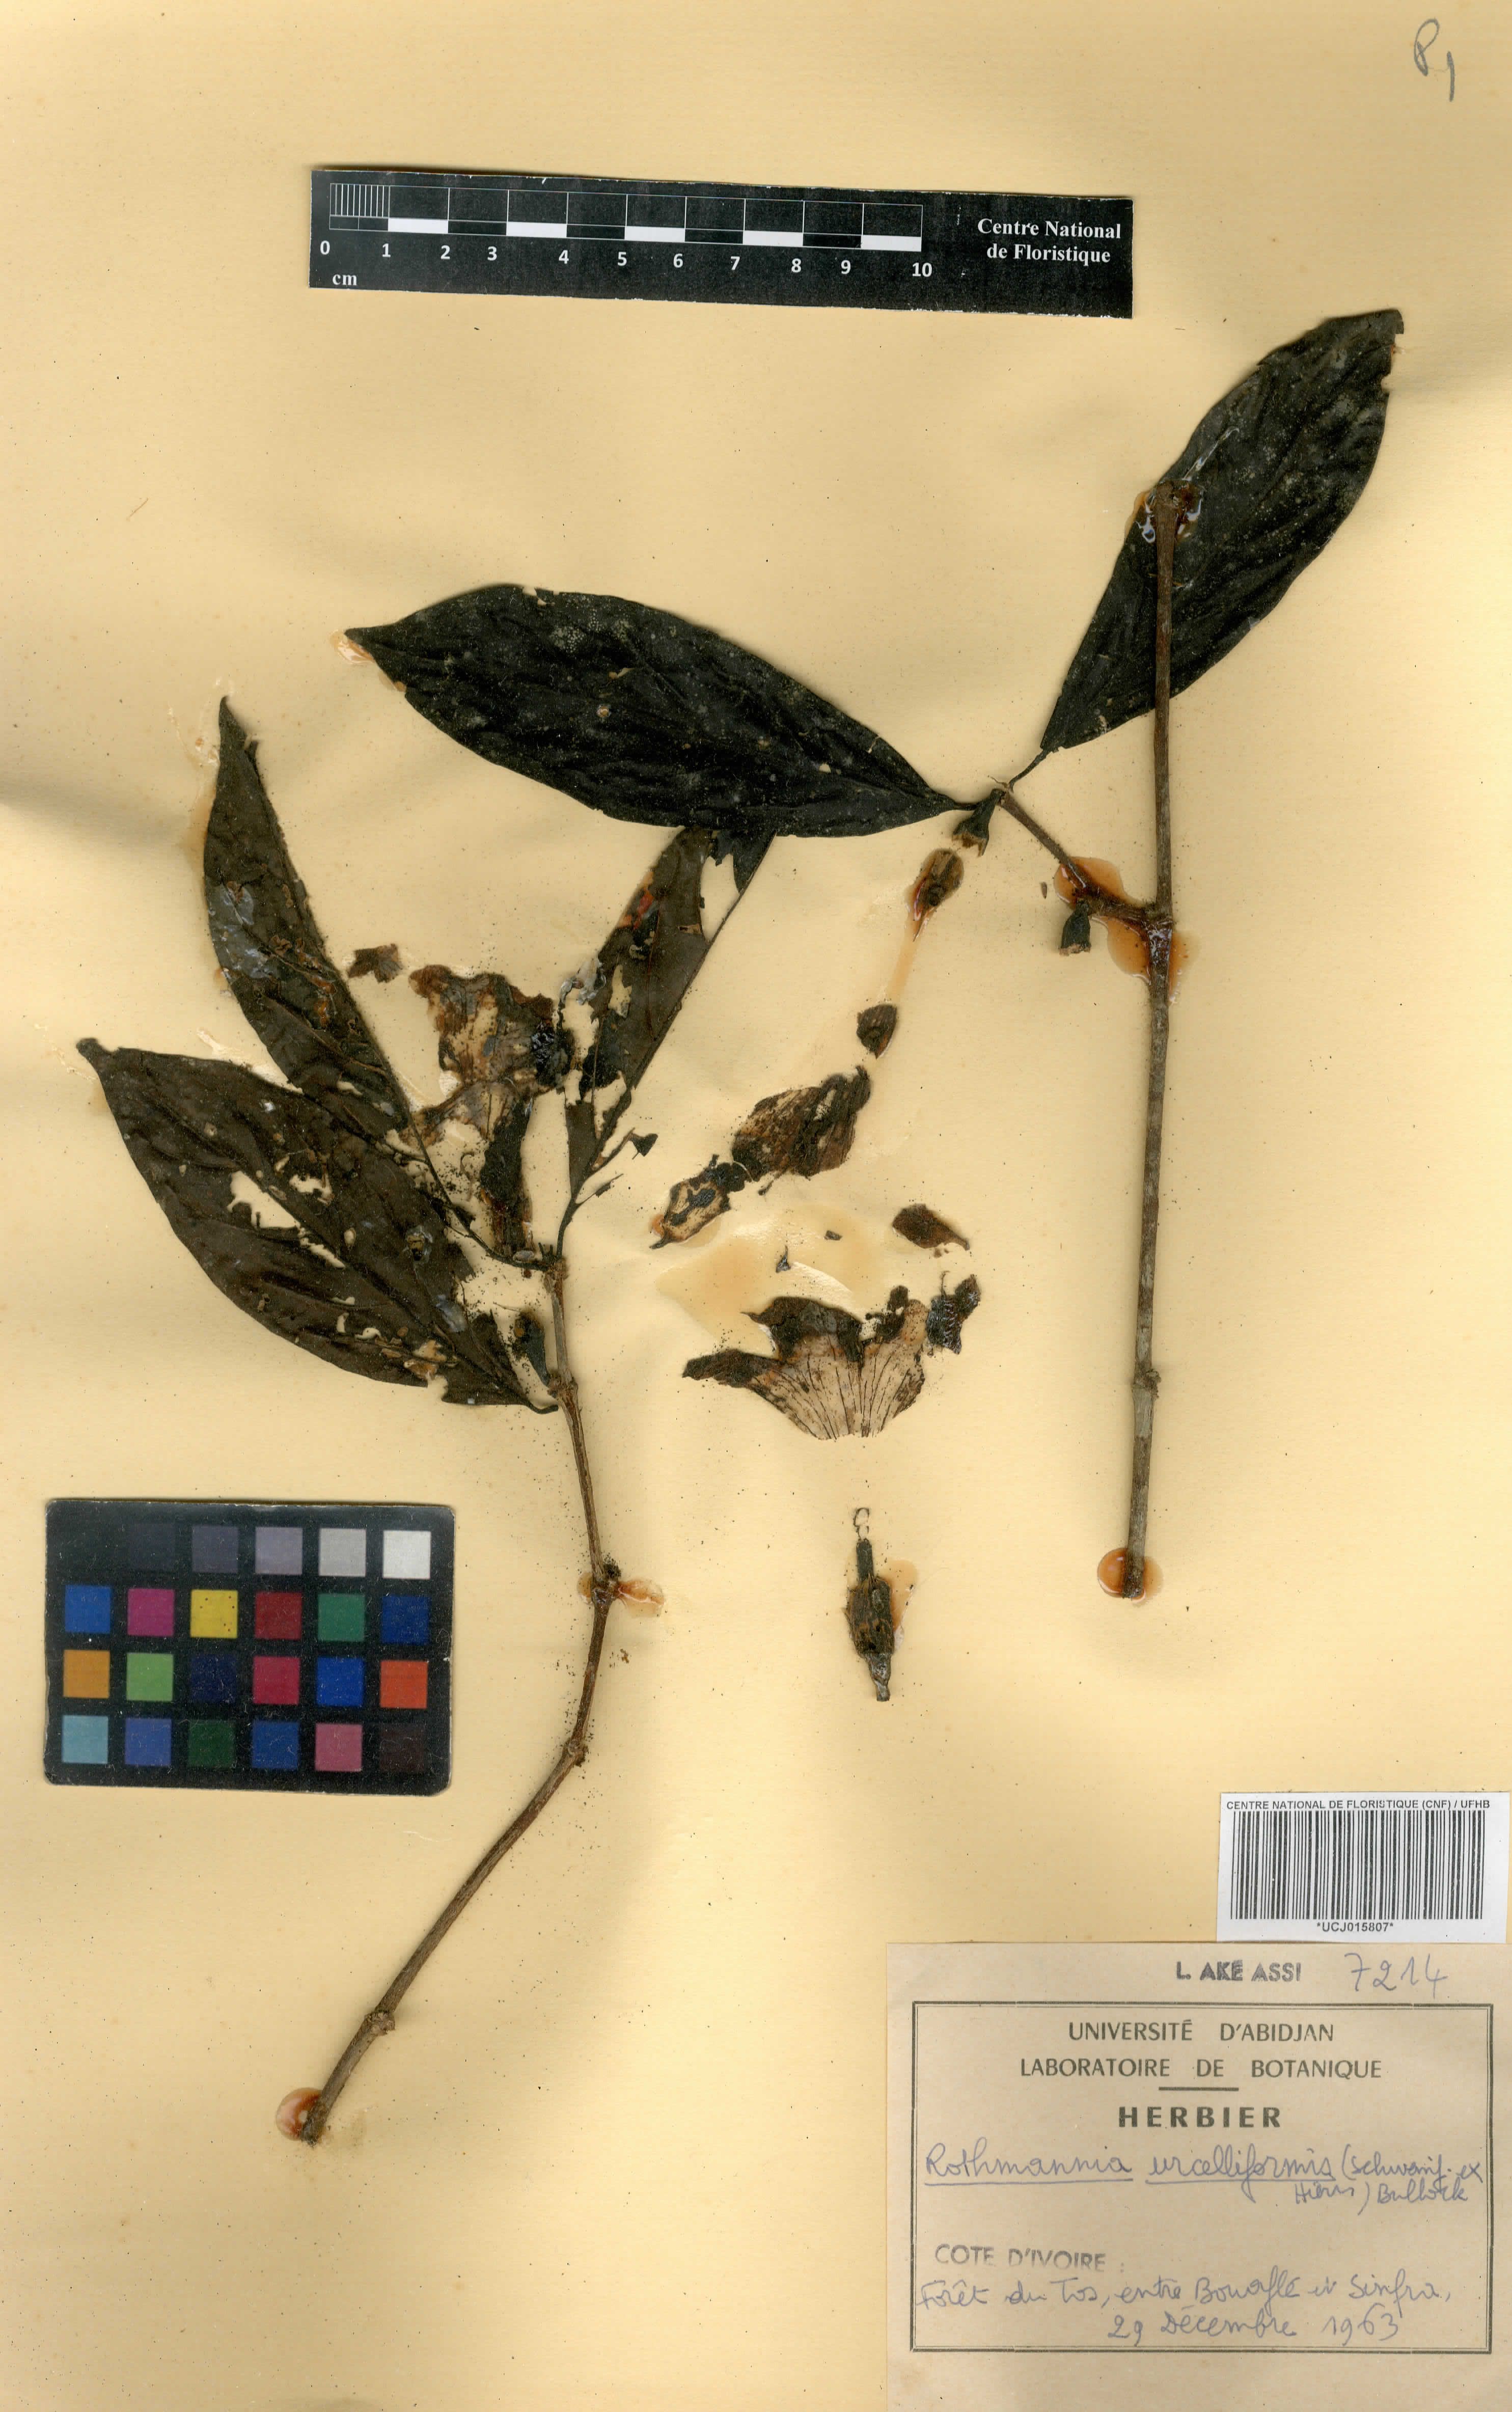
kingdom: Plantae
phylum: Tracheophyta
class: Magnoliopsida
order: Gentianales
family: Rubiaceae
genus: Rothmannia
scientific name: Rothmannia urcelliformis
